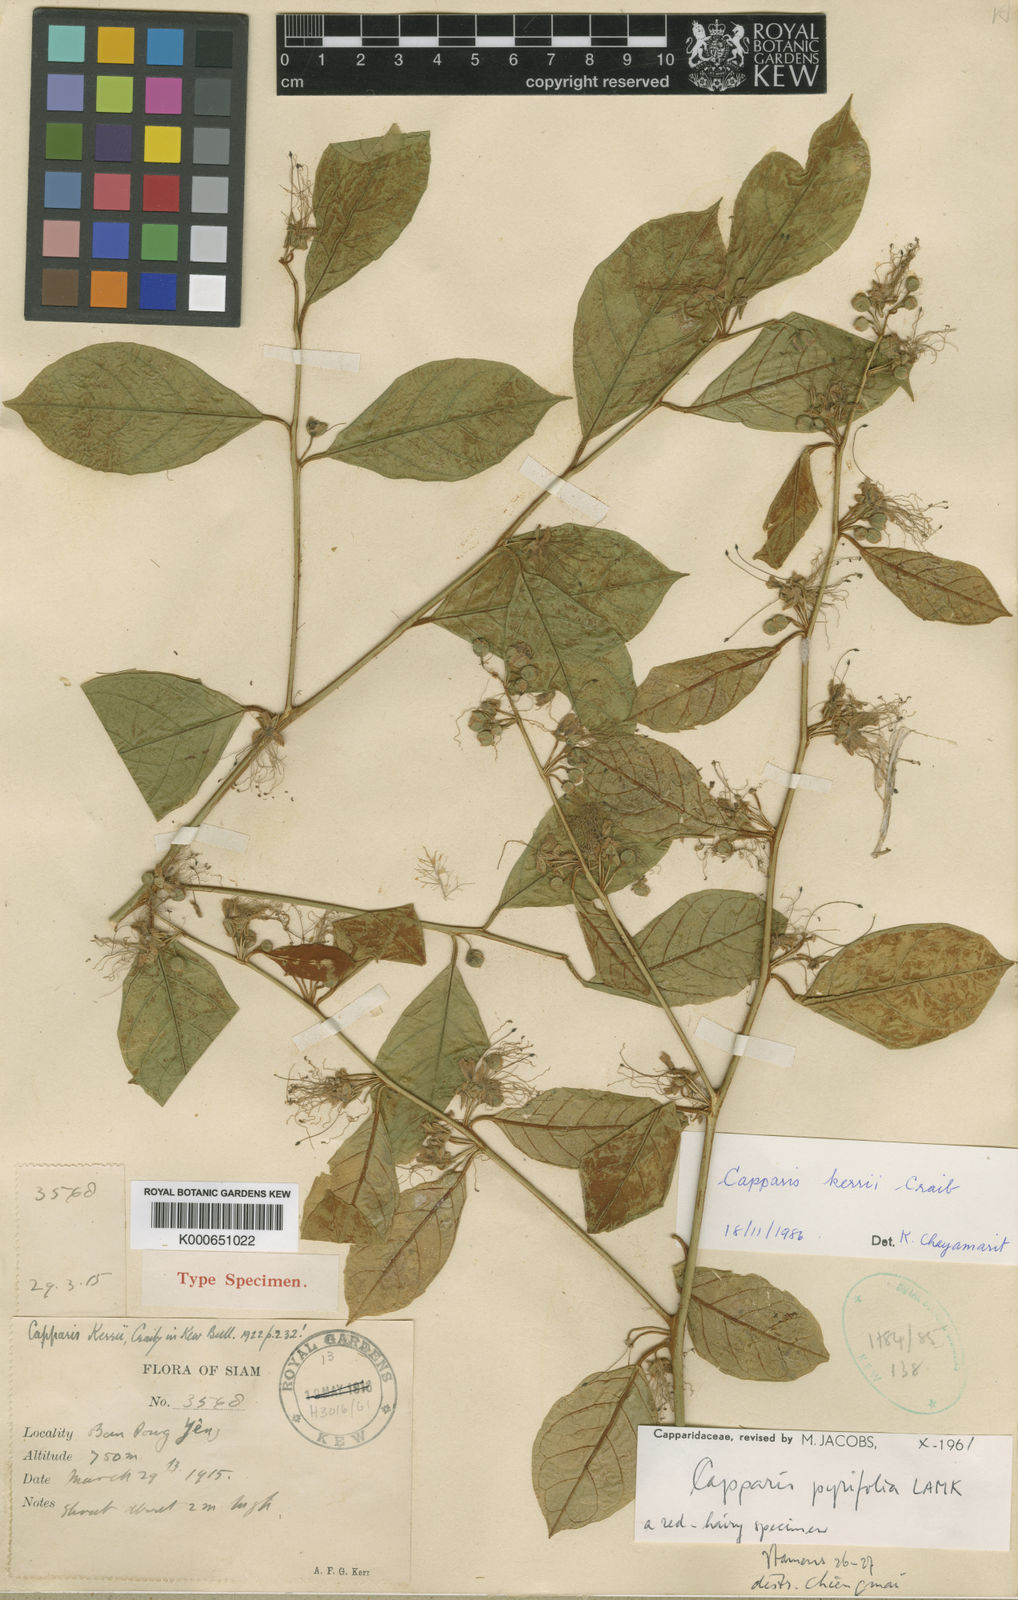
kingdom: Plantae
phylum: Tracheophyta
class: Magnoliopsida
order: Brassicales
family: Capparaceae
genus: Capparis
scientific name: Capparis pyrifolia
